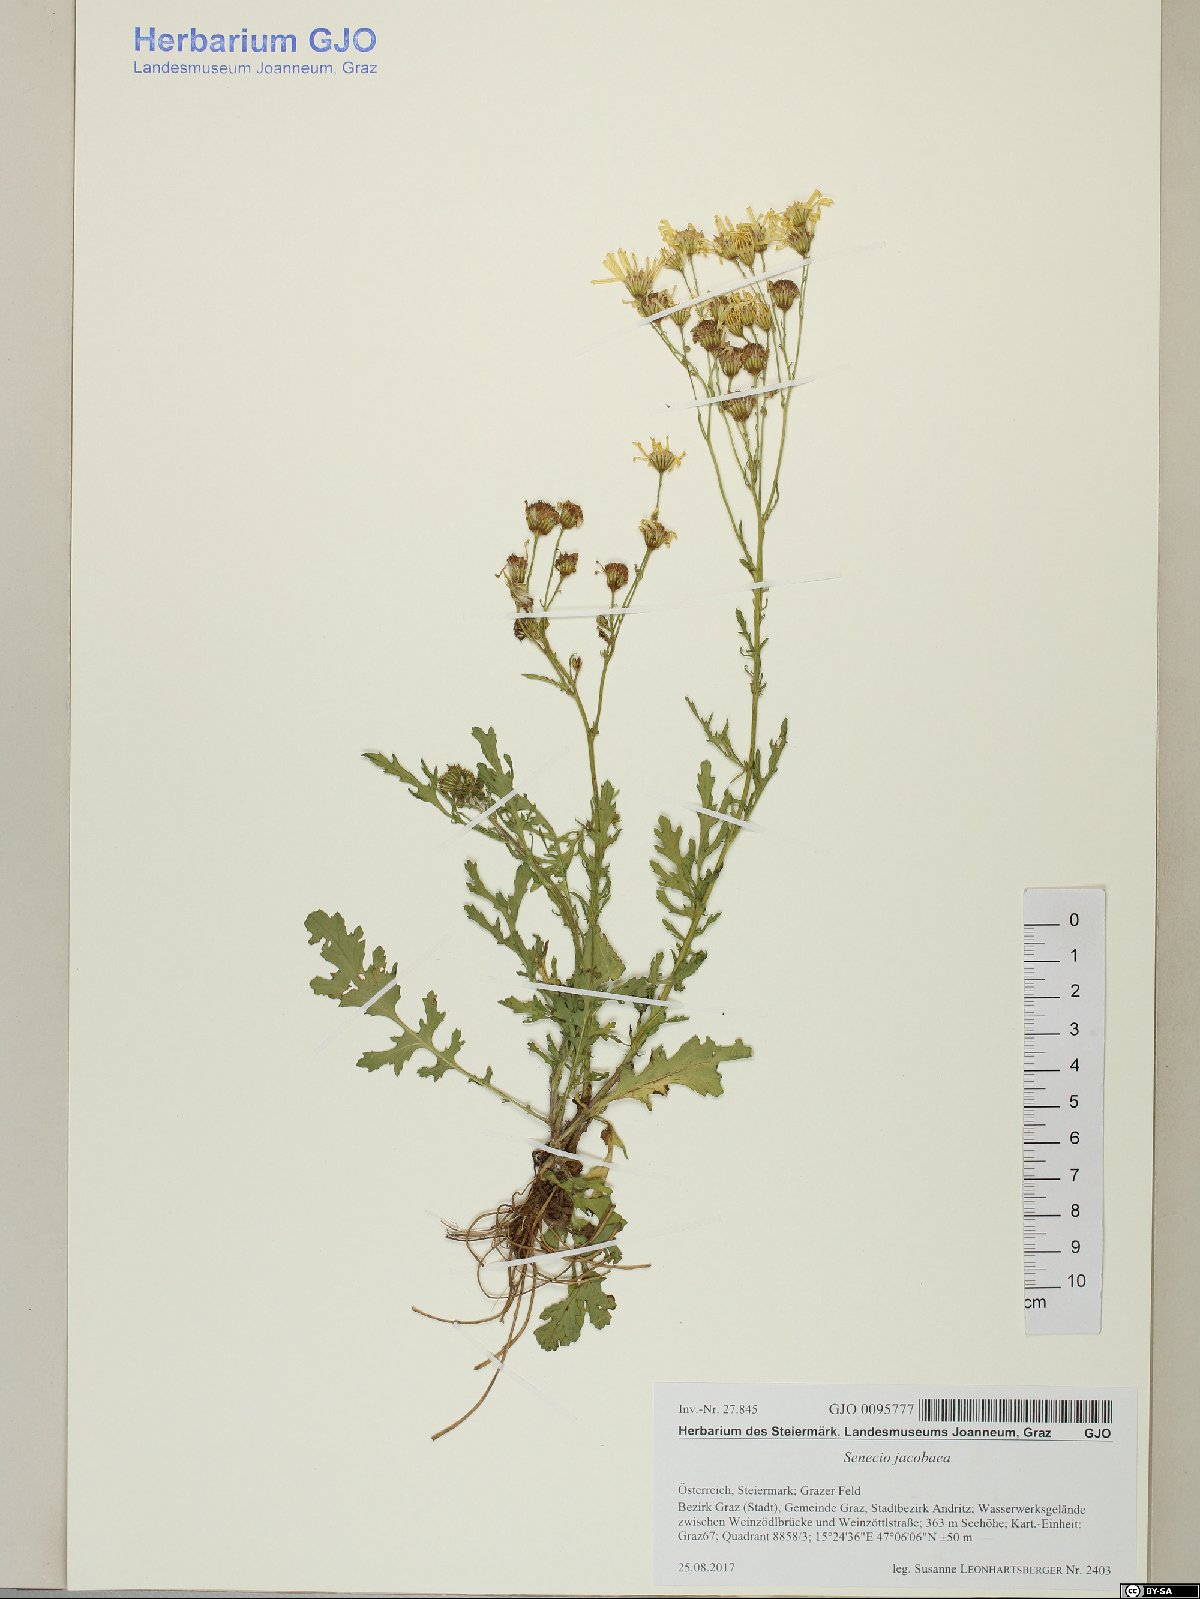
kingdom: Plantae
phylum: Tracheophyta
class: Magnoliopsida
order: Asterales
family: Asteraceae
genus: Jacobaea
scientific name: Jacobaea vulgaris
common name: Stinking willie
